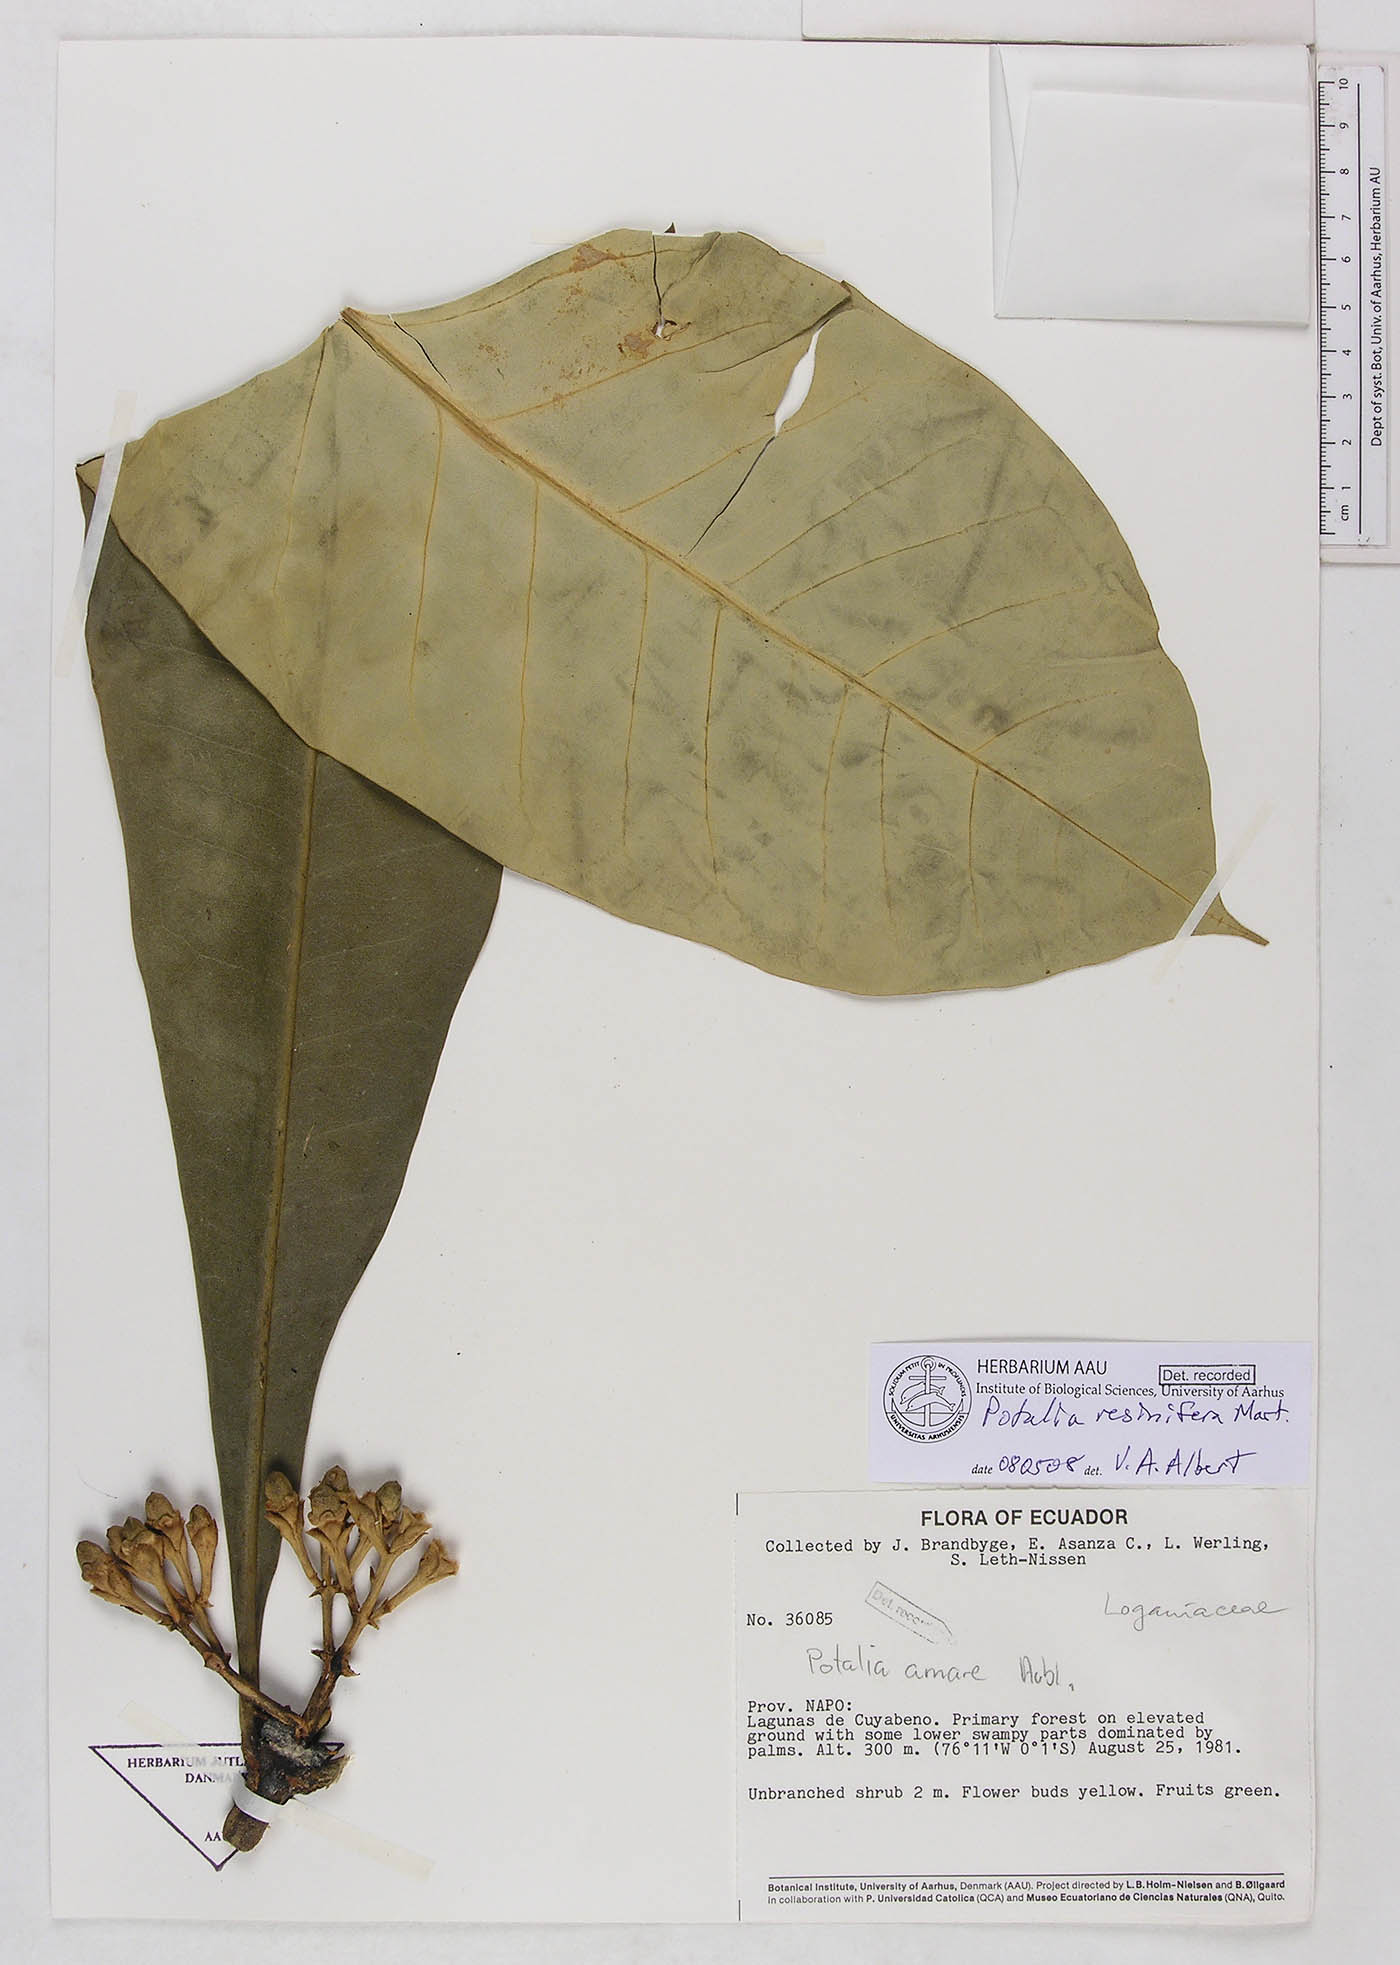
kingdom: Plantae
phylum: Tracheophyta
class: Magnoliopsida
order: Gentianales
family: Gentianaceae
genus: Potalia
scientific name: Potalia resinifera
